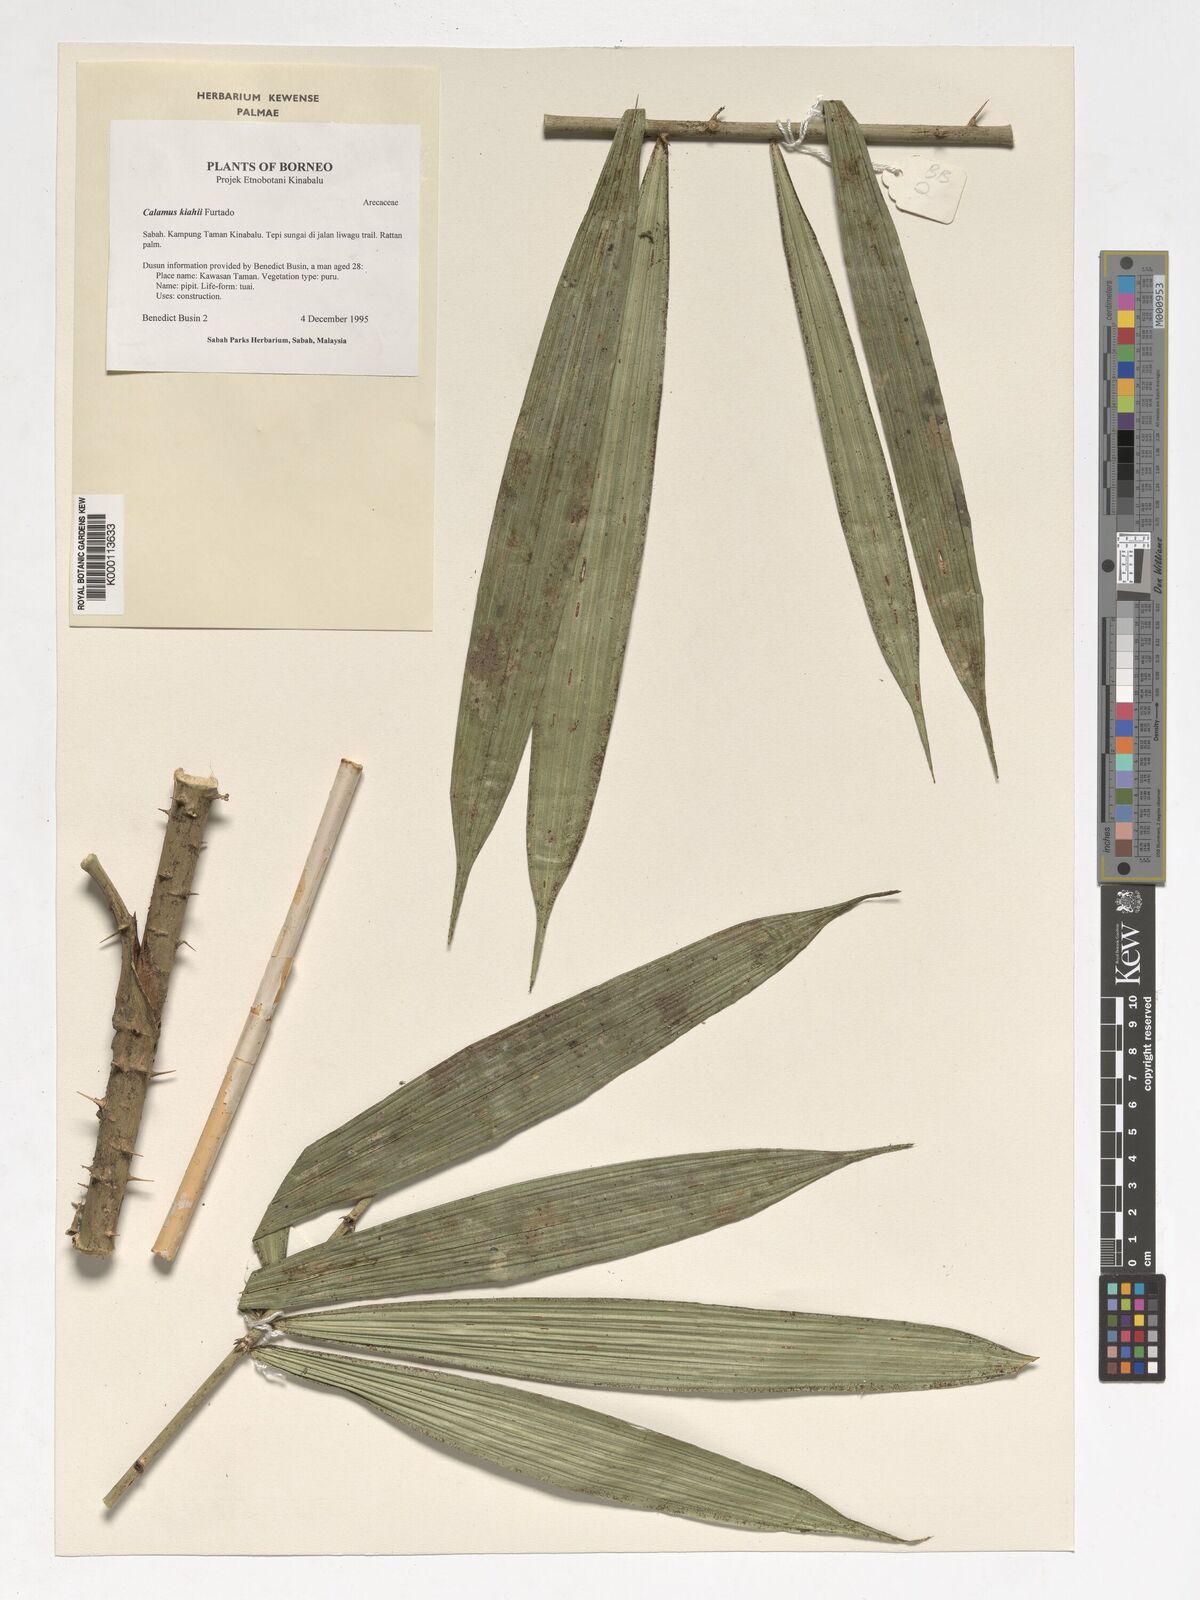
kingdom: Plantae
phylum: Tracheophyta
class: Liliopsida
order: Arecales
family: Arecaceae
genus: Calamus
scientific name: Calamus plicatus
